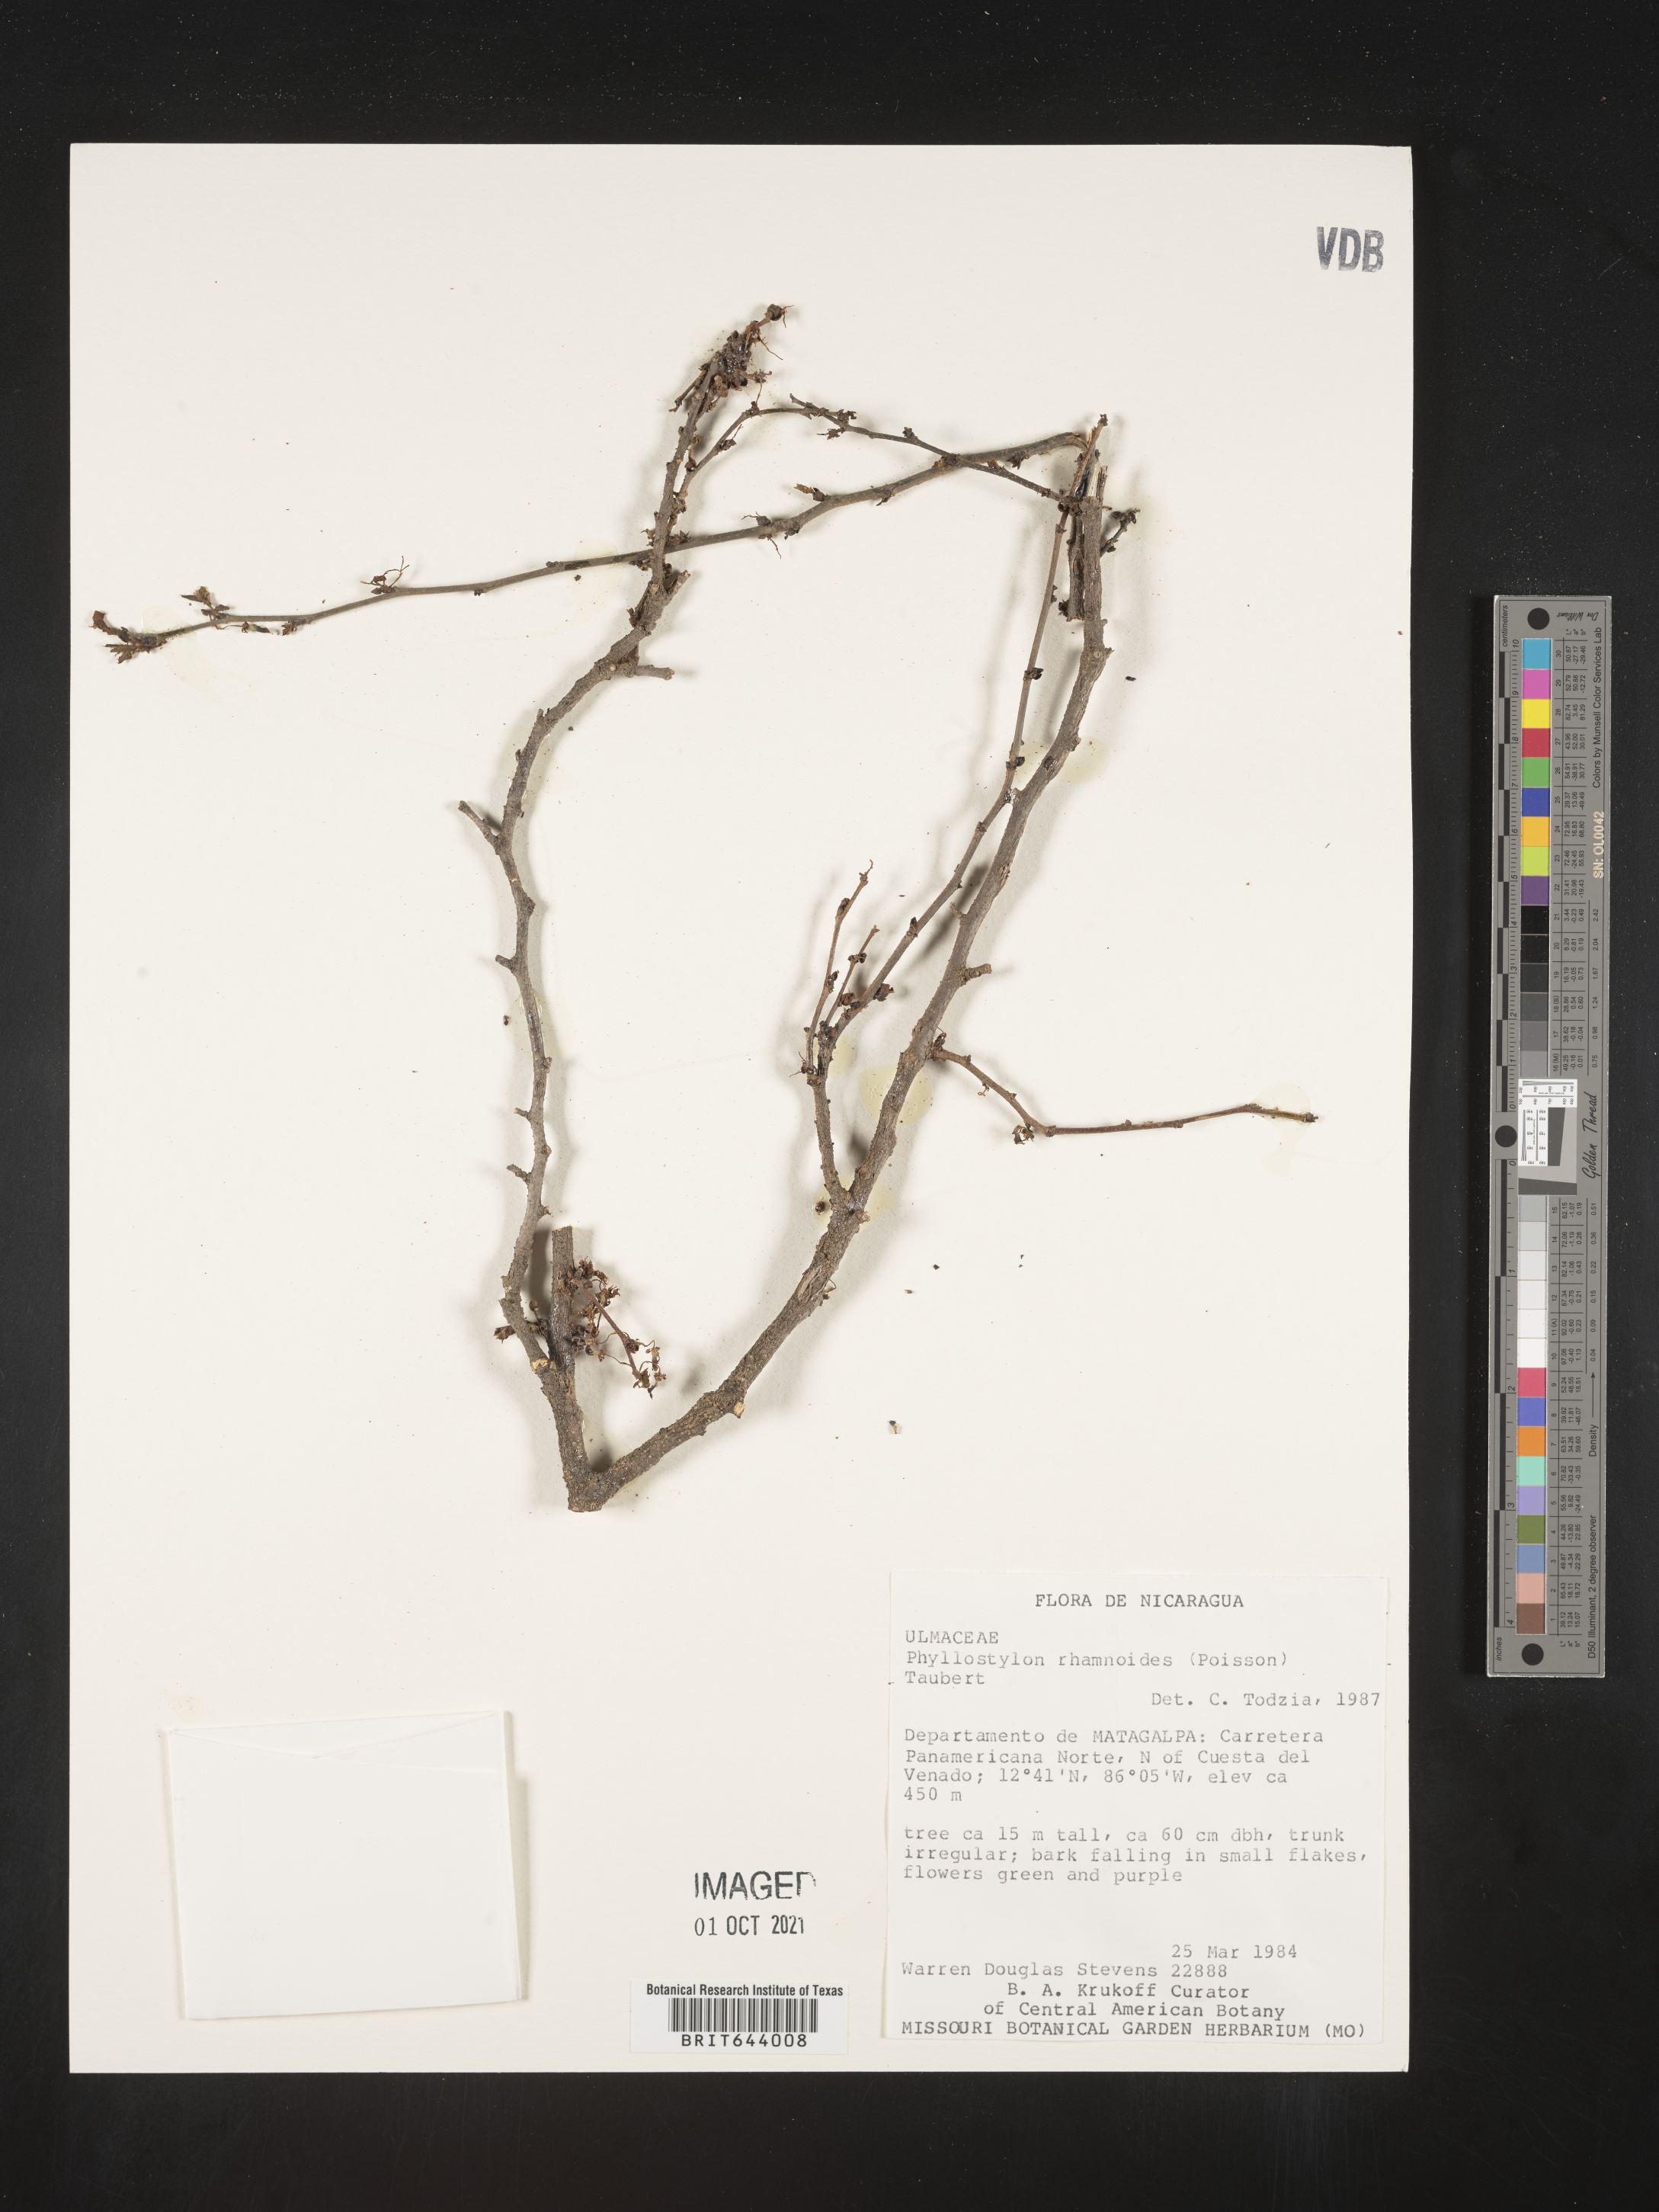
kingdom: Plantae
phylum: Tracheophyta
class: Magnoliopsida
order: Rosales
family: Ulmaceae
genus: Phyllostylon
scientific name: Phyllostylon
